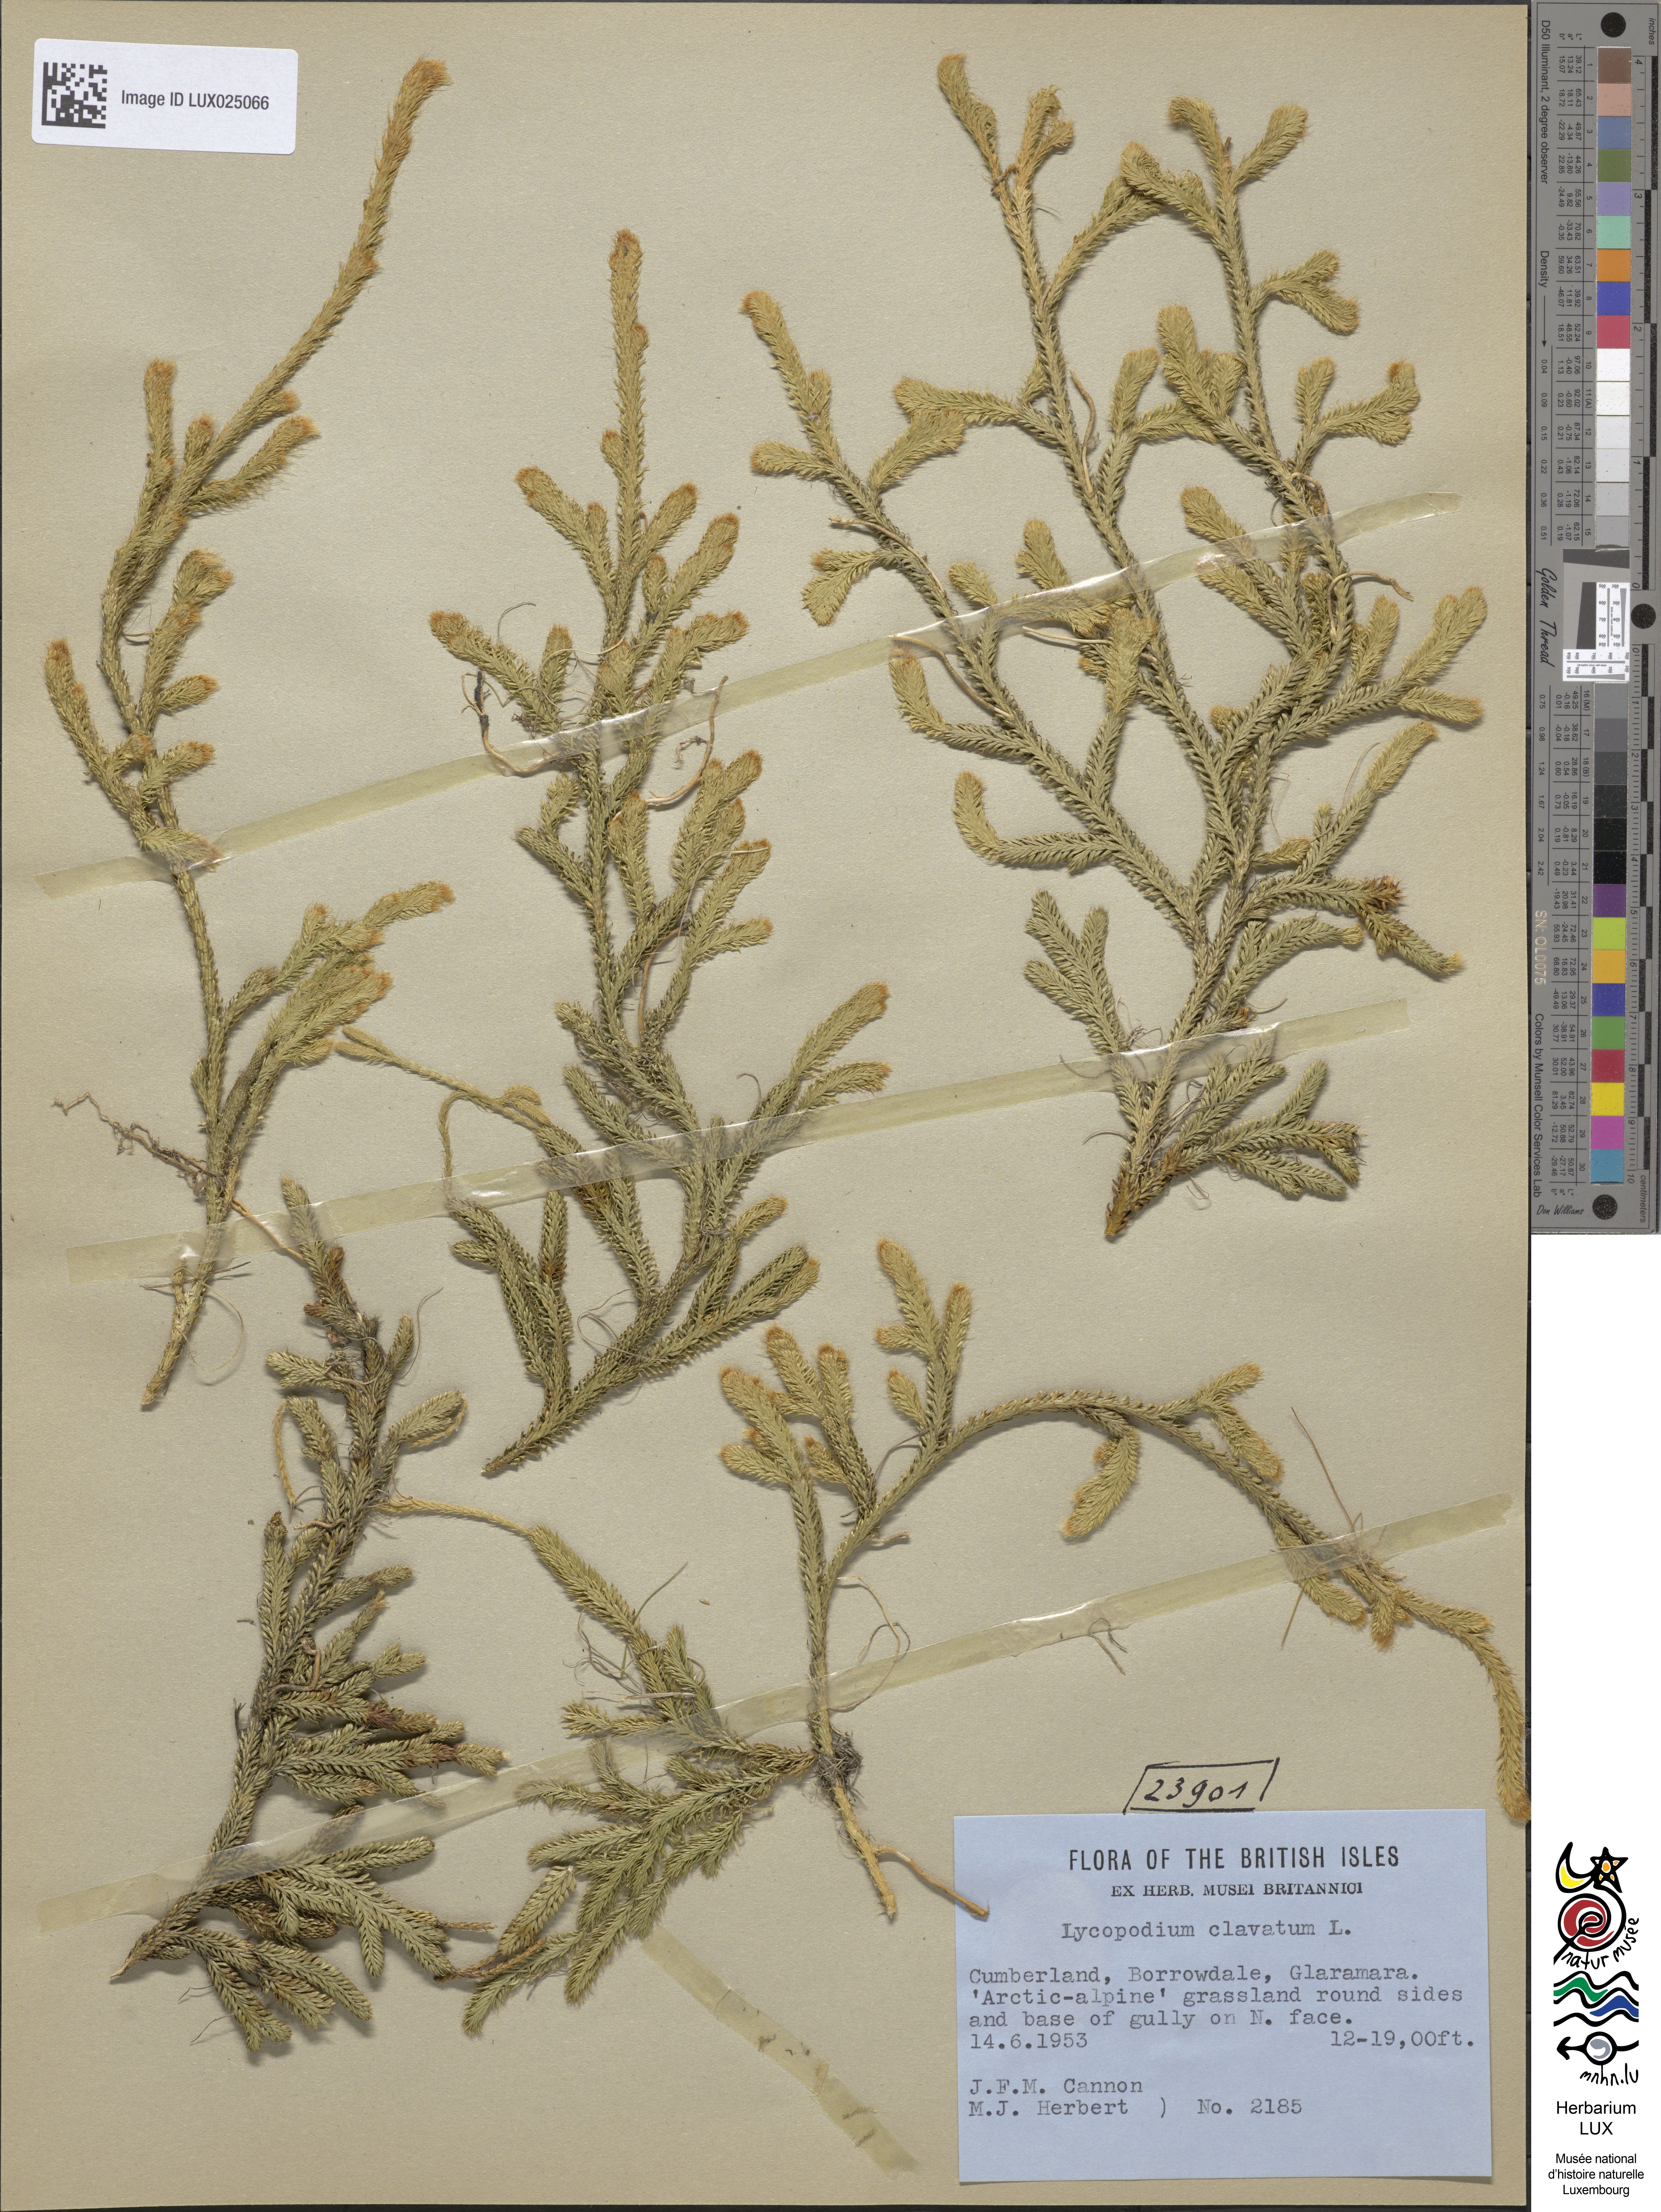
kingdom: Plantae
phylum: Tracheophyta
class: Lycopodiopsida
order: Lycopodiales
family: Lycopodiaceae
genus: Lycopodium
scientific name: Lycopodium clavatum
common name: Stag's-horn clubmoss
